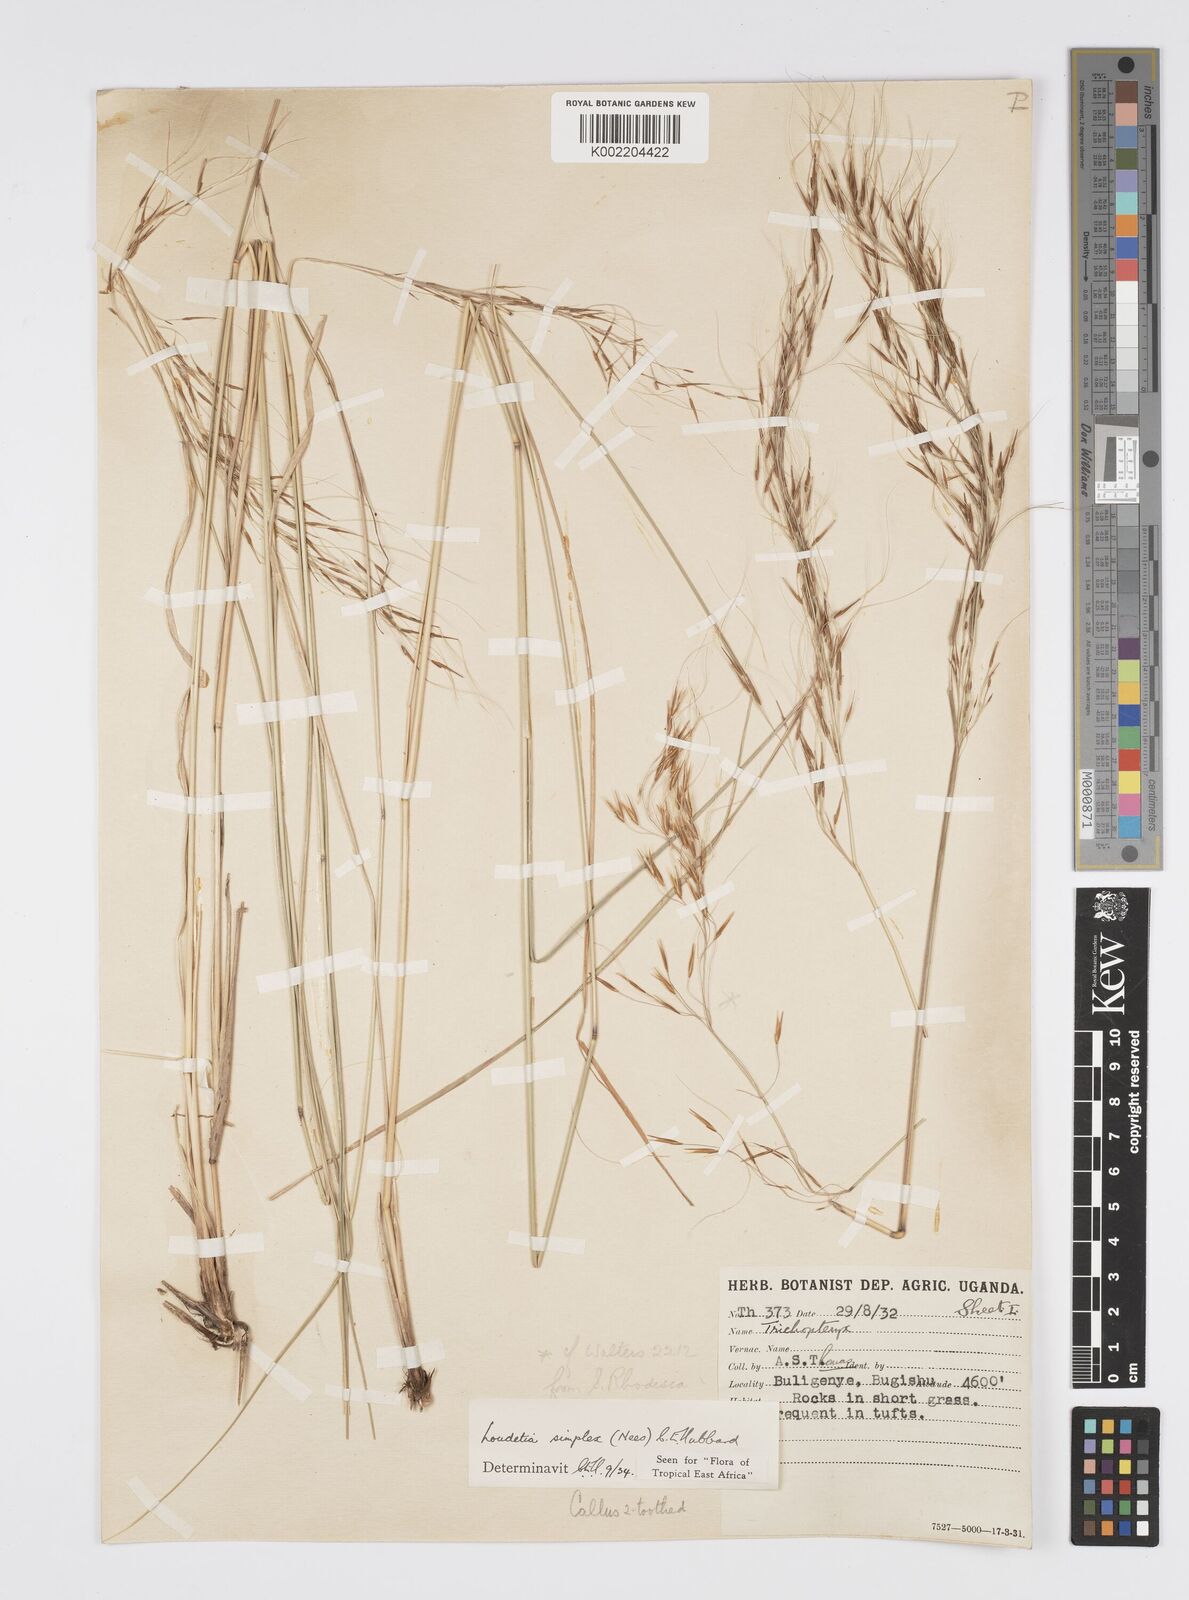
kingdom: Plantae
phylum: Tracheophyta
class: Liliopsida
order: Poales
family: Poaceae
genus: Loudetia
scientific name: Loudetia simplex
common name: Common russet grass
